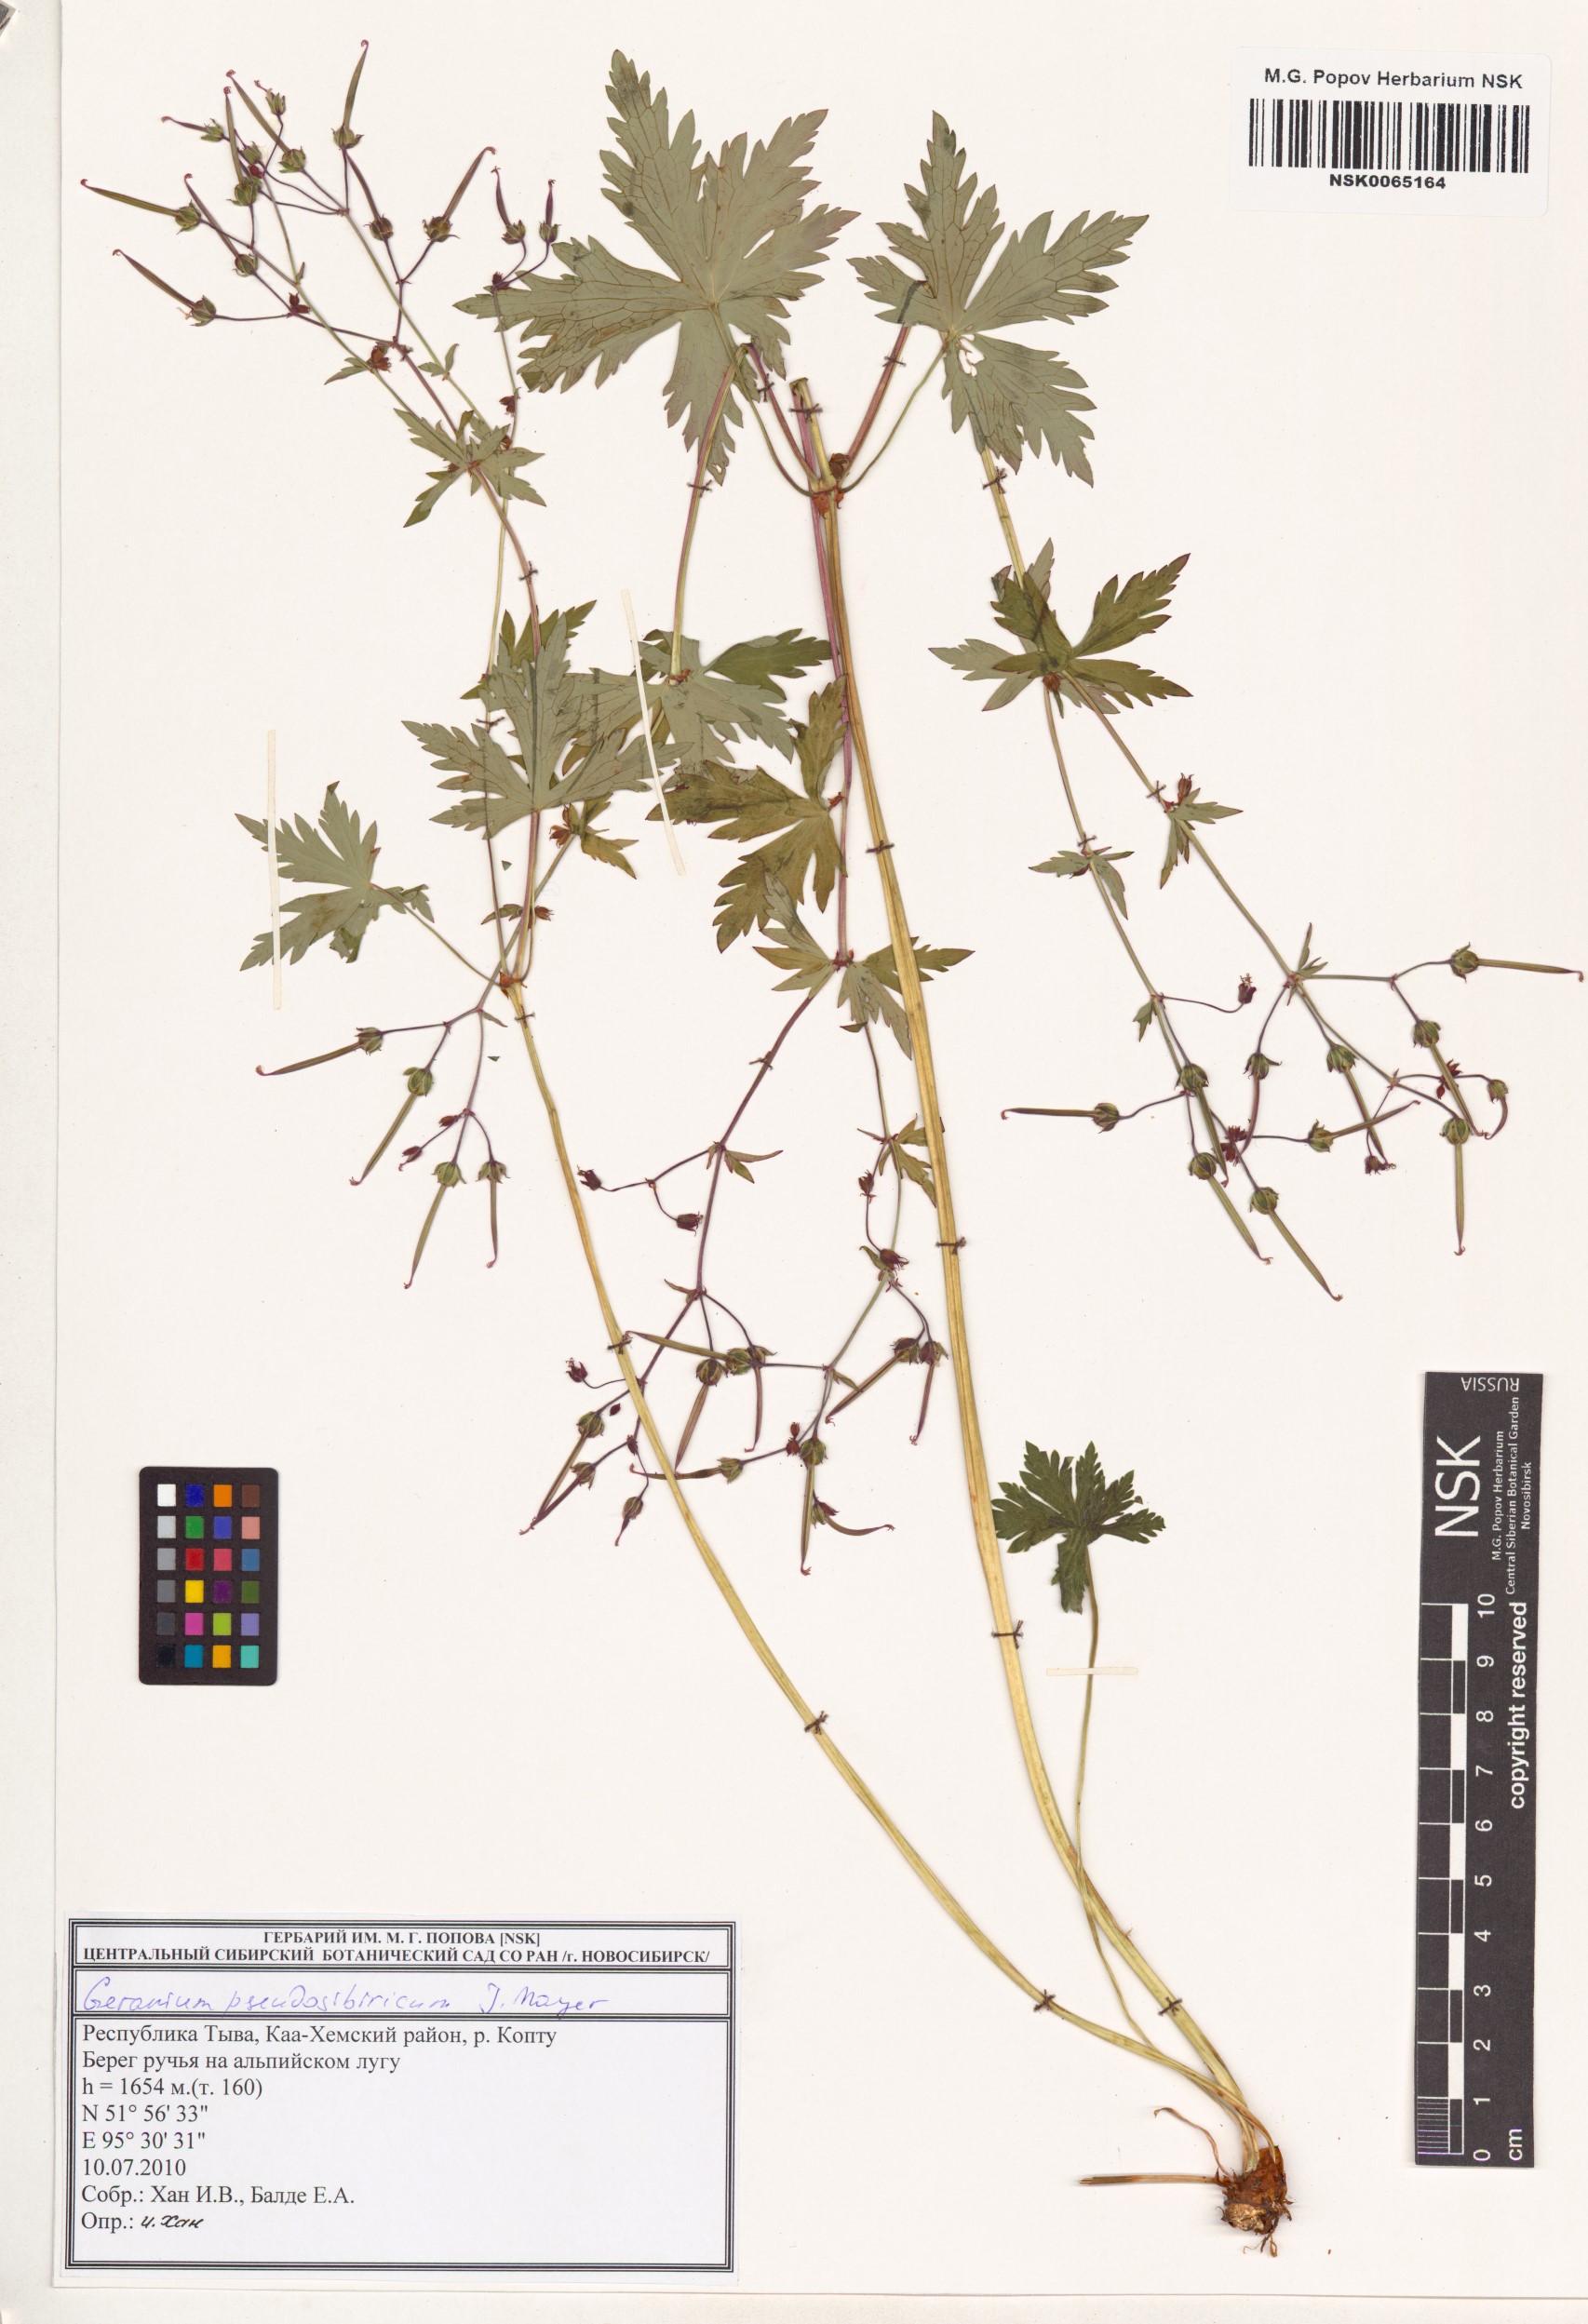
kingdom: Plantae
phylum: Tracheophyta
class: Magnoliopsida
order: Geraniales
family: Geraniaceae
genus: Geranium
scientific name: Geranium pseudosibiricum
